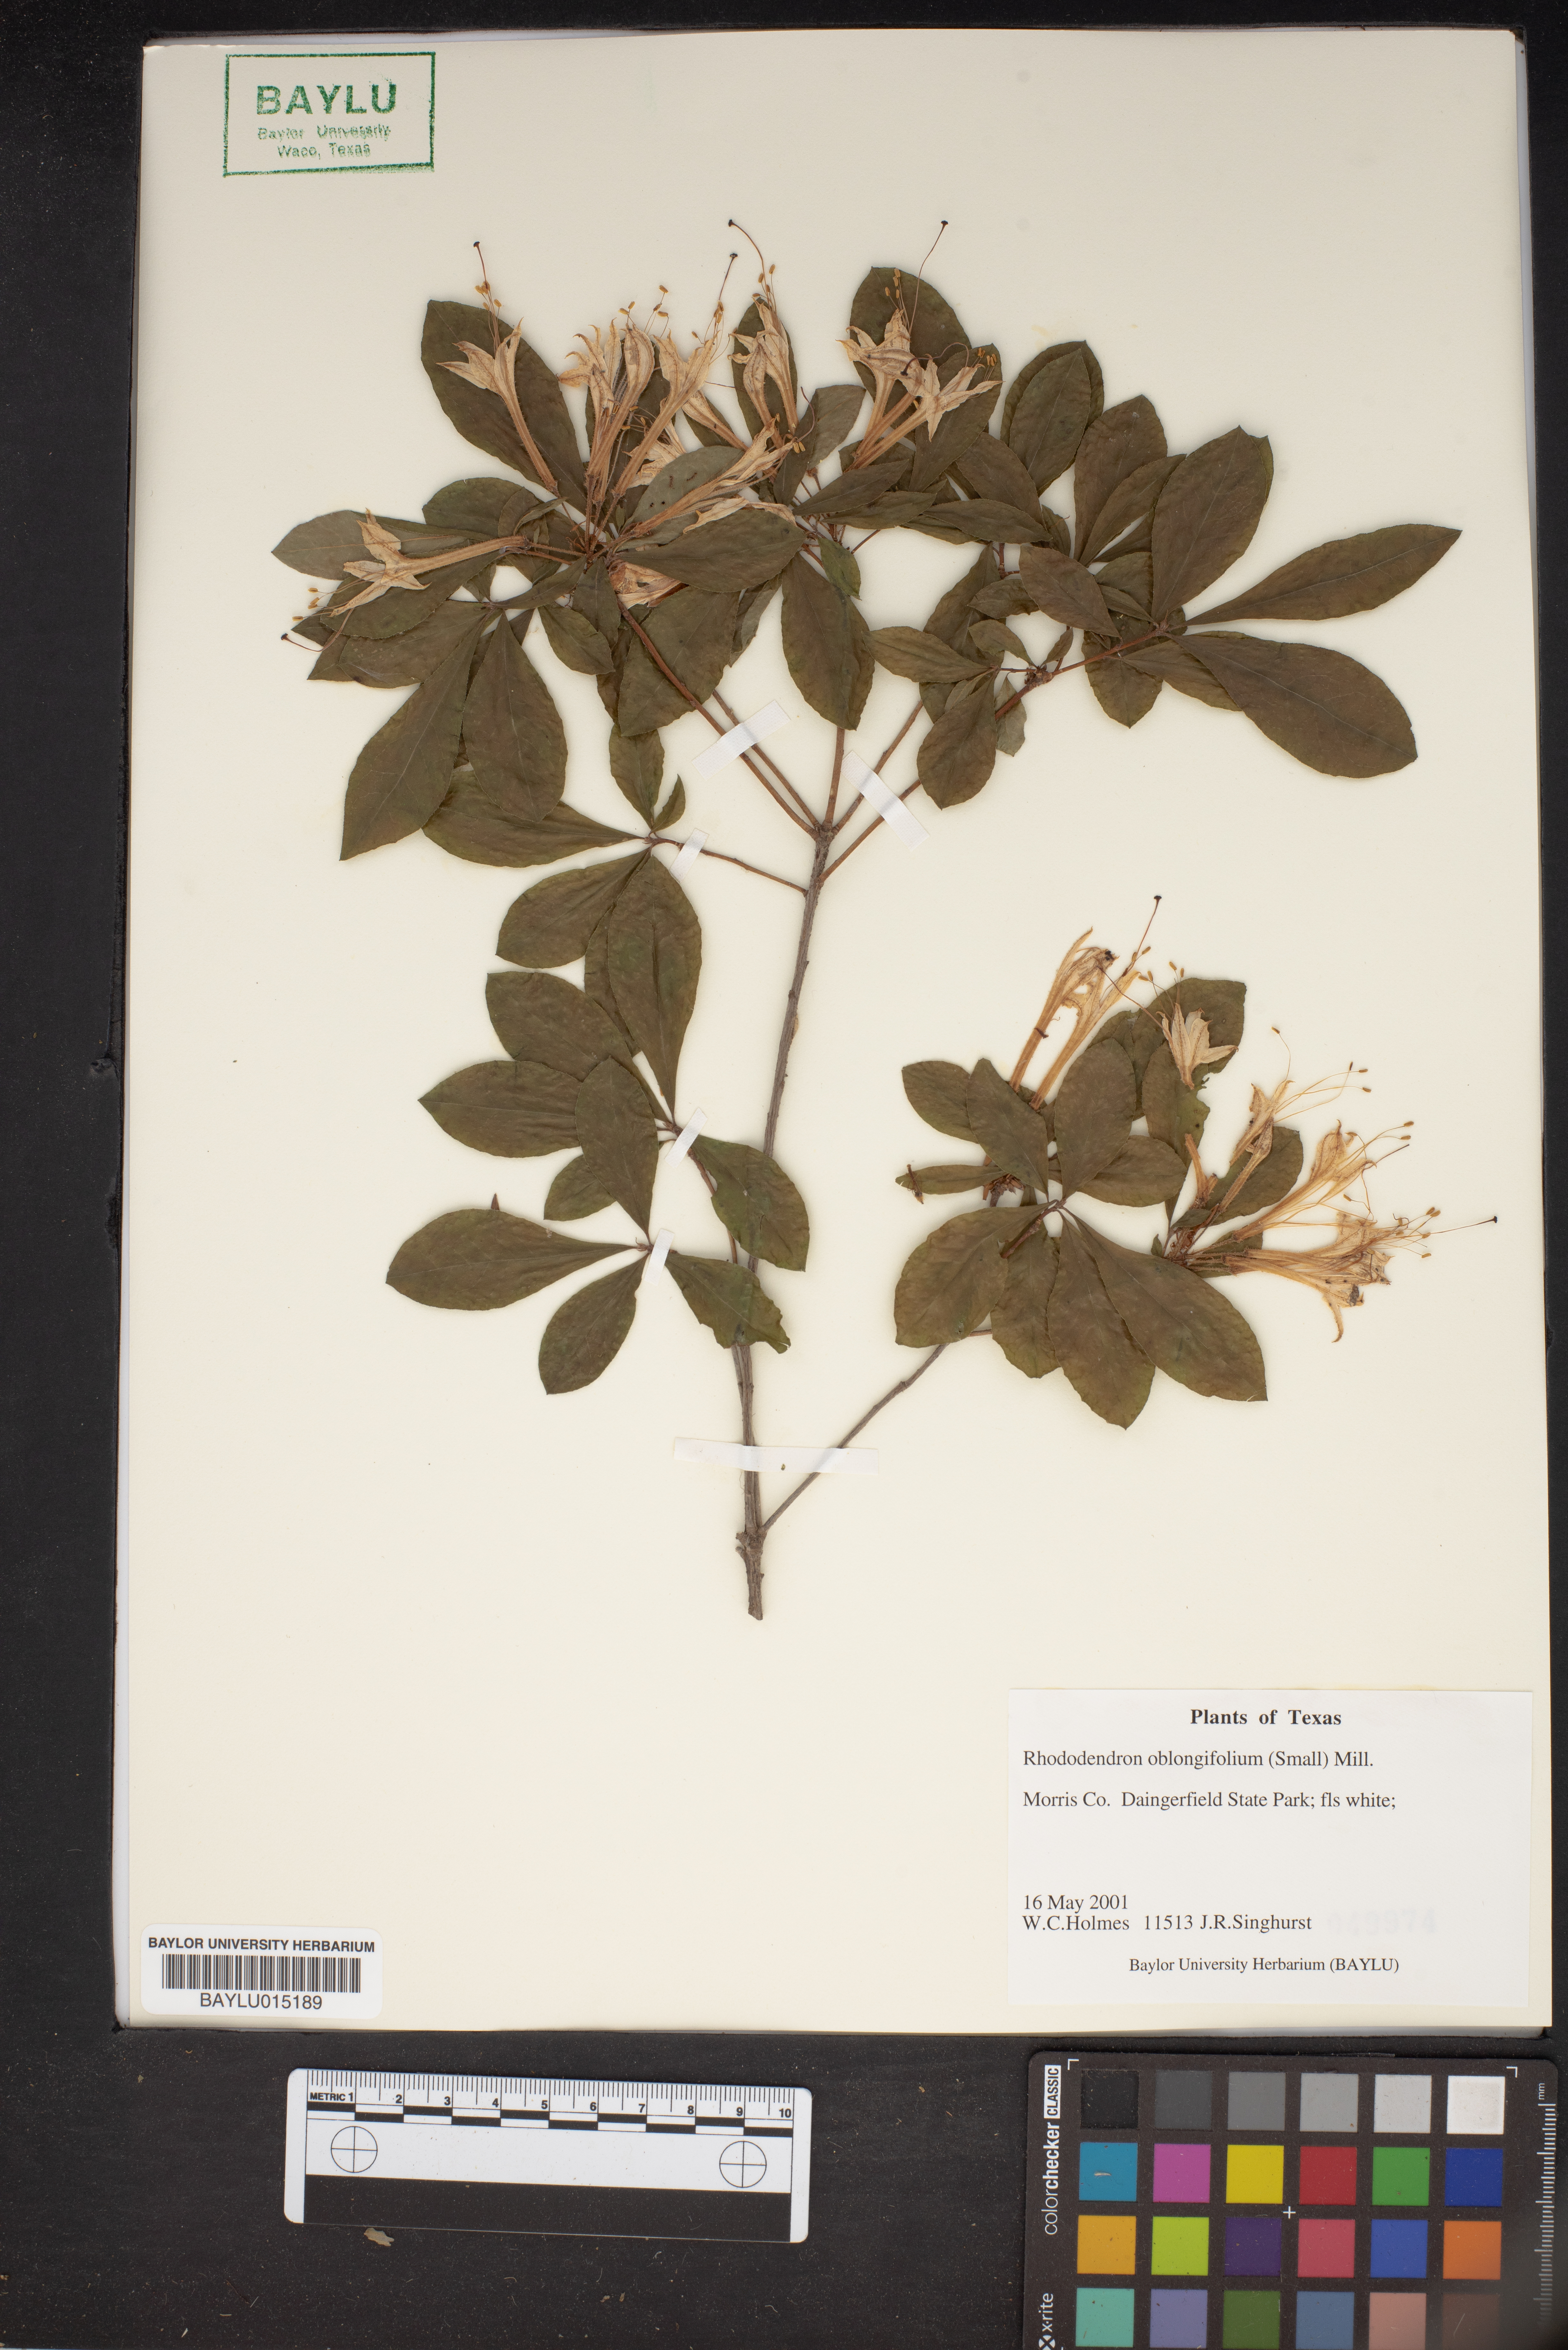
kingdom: Plantae
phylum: Tracheophyta
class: Magnoliopsida
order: Ericales
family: Ericaceae
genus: Rhododendron
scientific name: Rhododendron viscosum
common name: Clammy azalea
